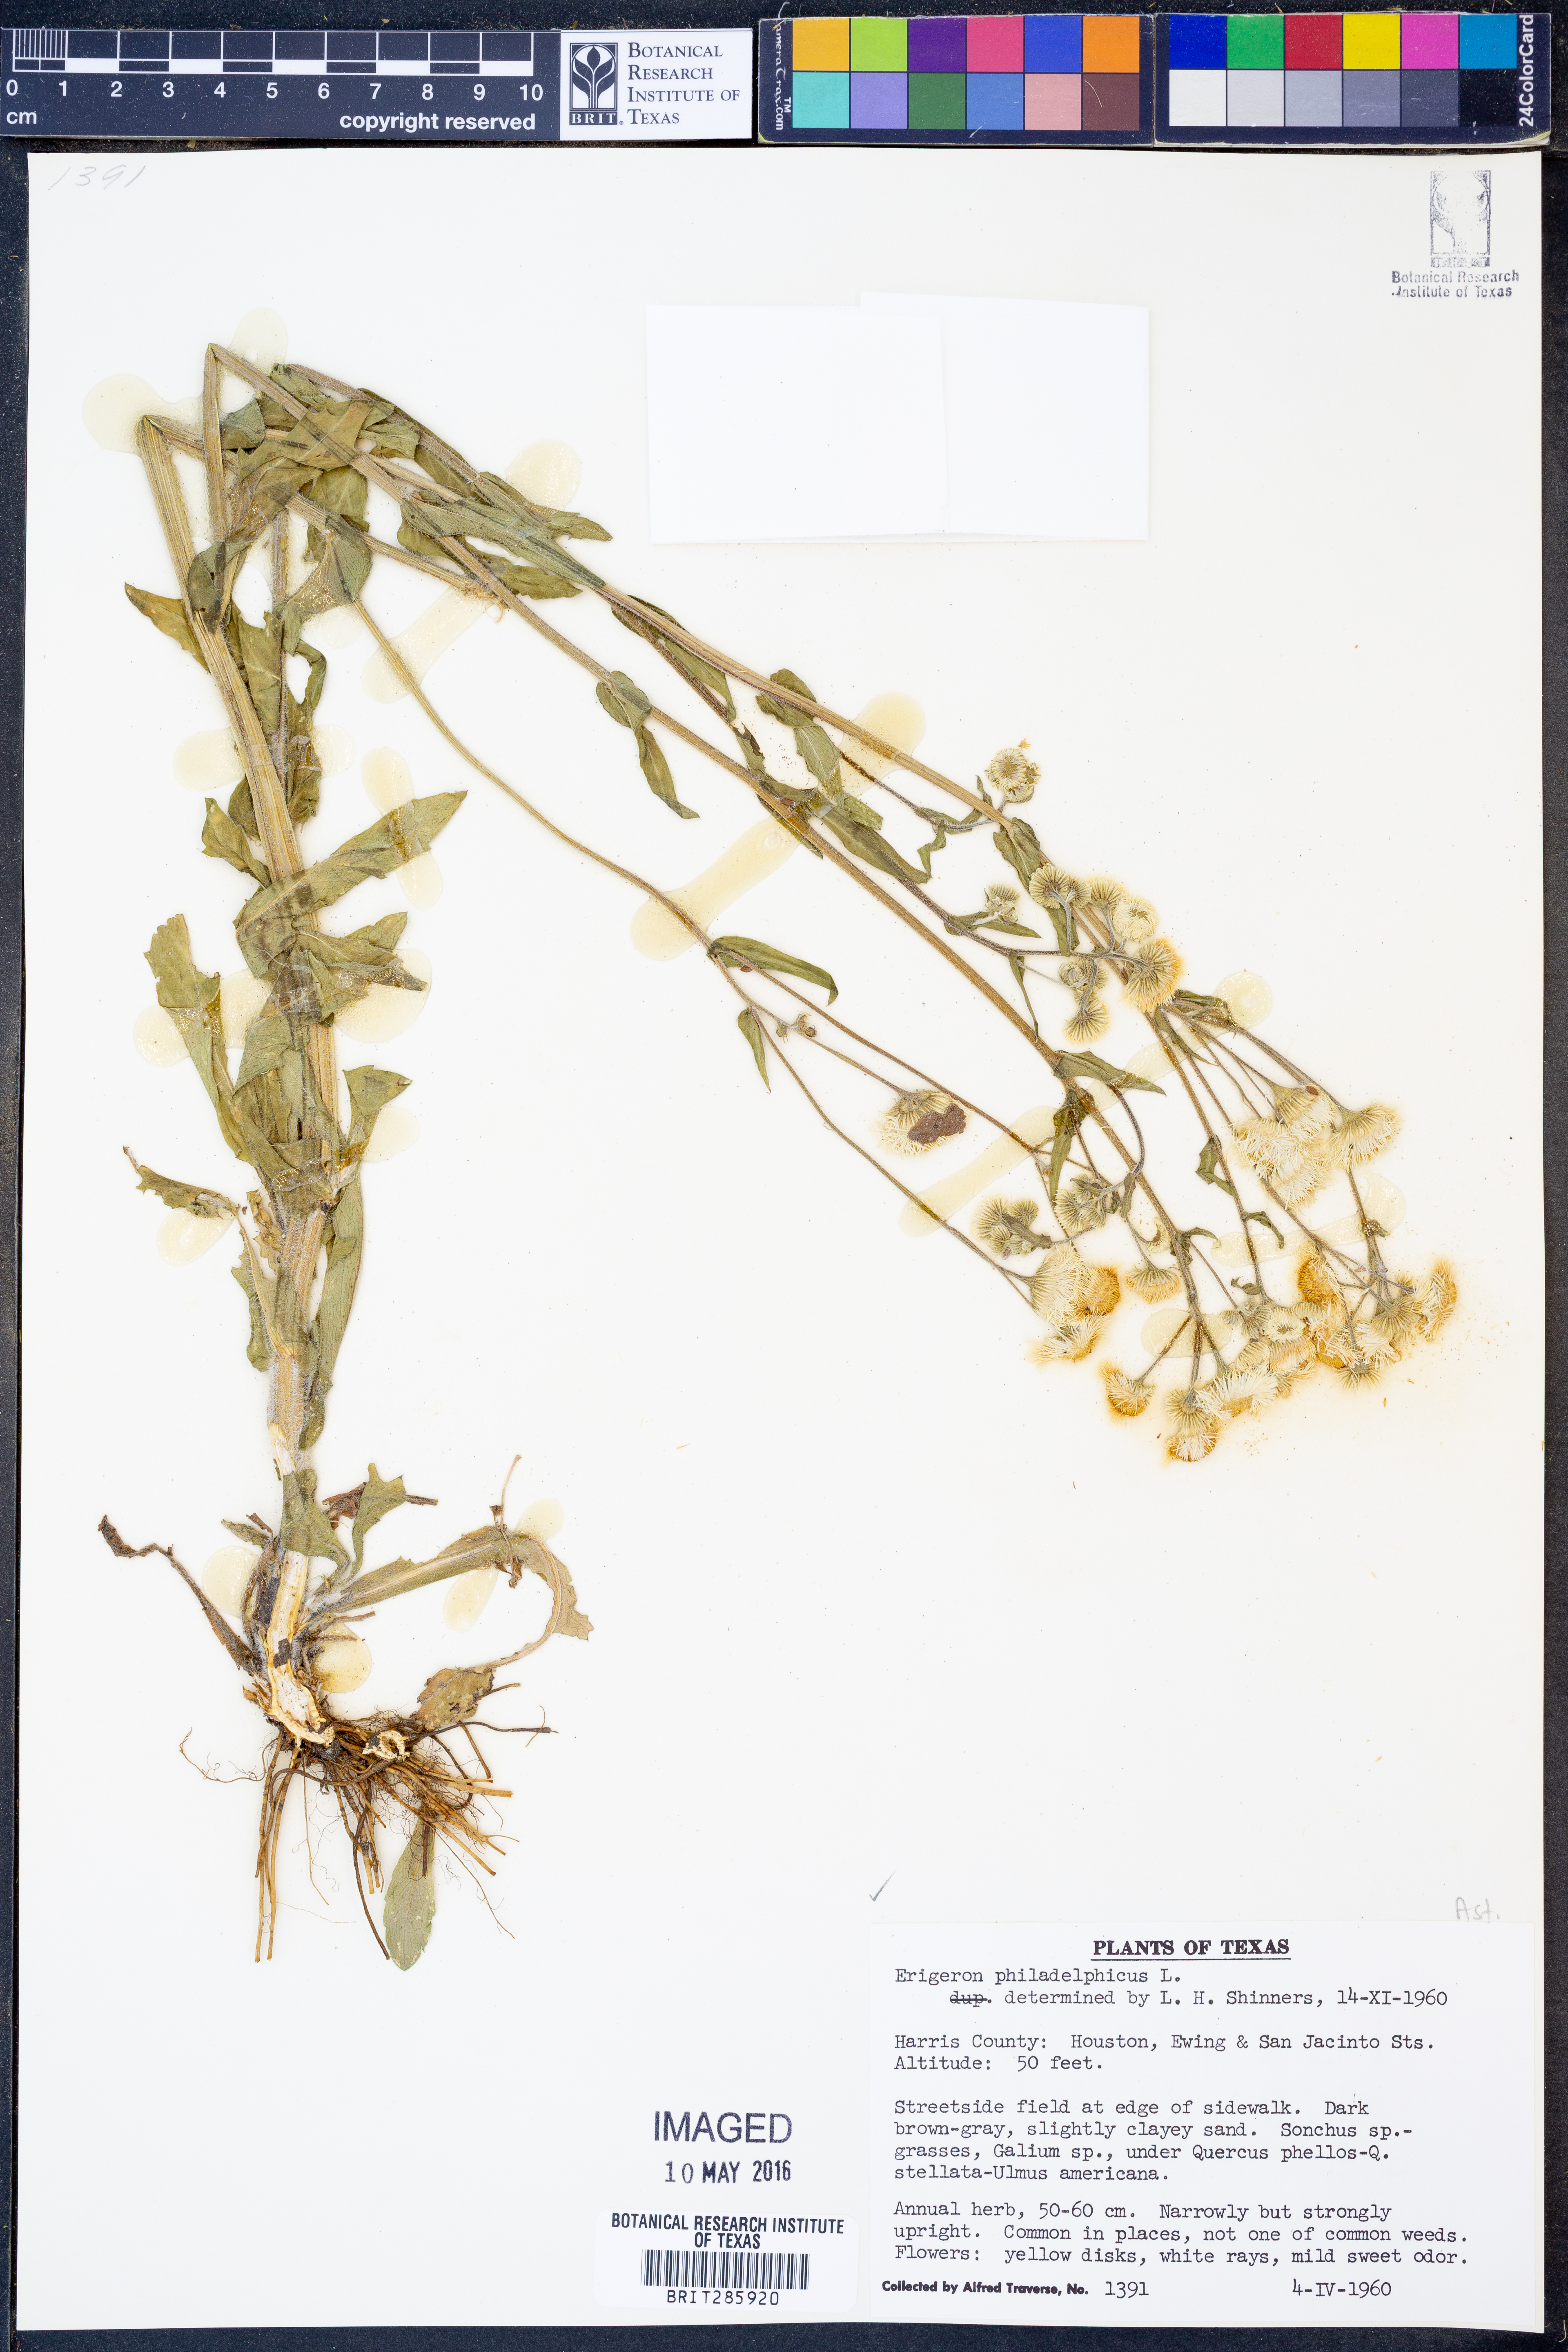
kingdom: Plantae
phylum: Tracheophyta
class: Magnoliopsida
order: Asterales
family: Asteraceae
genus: Erigeron
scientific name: Erigeron philadelphicus
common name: Robin's-plantain
